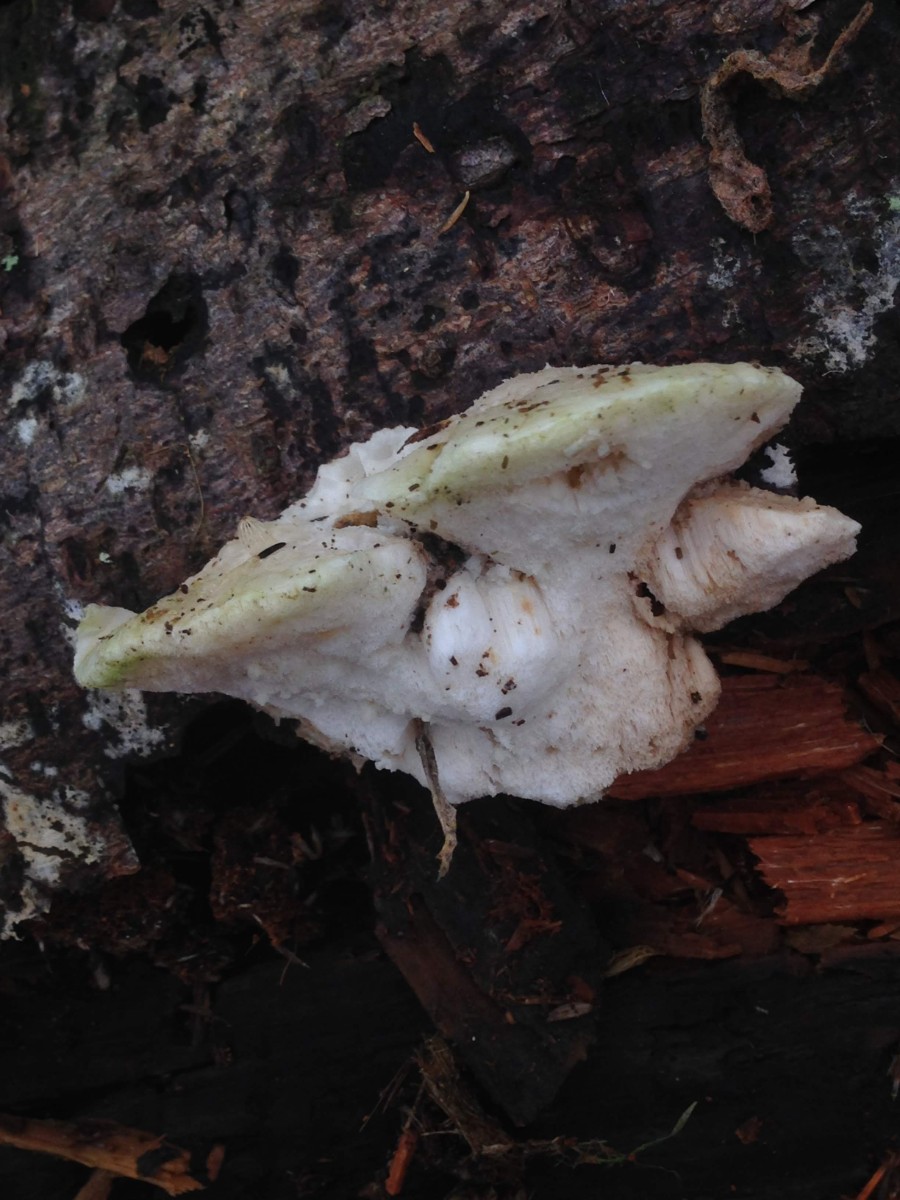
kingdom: Fungi
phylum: Basidiomycota
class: Agaricomycetes
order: Polyporales
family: Incrustoporiaceae
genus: Tyromyces
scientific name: Tyromyces lacteus
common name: mælkehvid kødporesvamp
